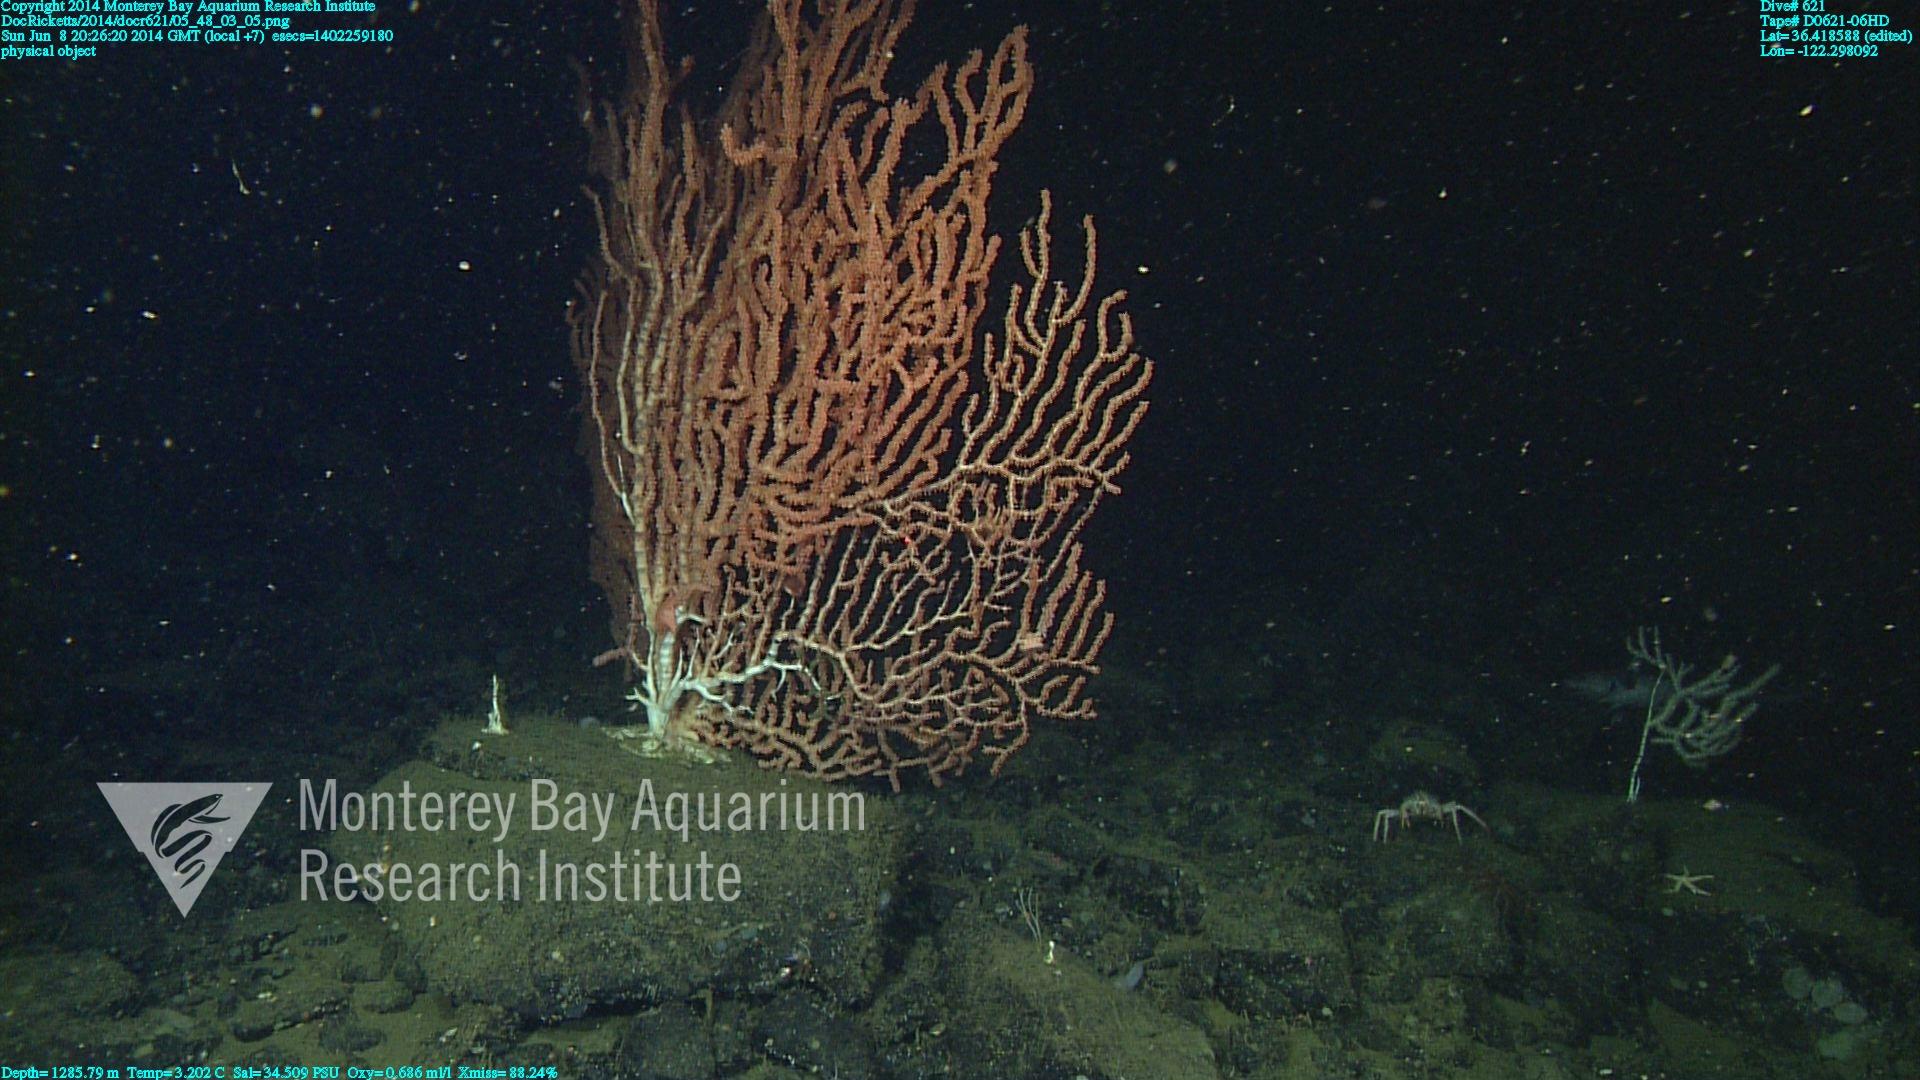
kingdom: Animalia
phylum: Cnidaria
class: Anthozoa
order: Scleralcyonacea
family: Keratoisididae
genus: Keratoisis
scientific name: Keratoisis
